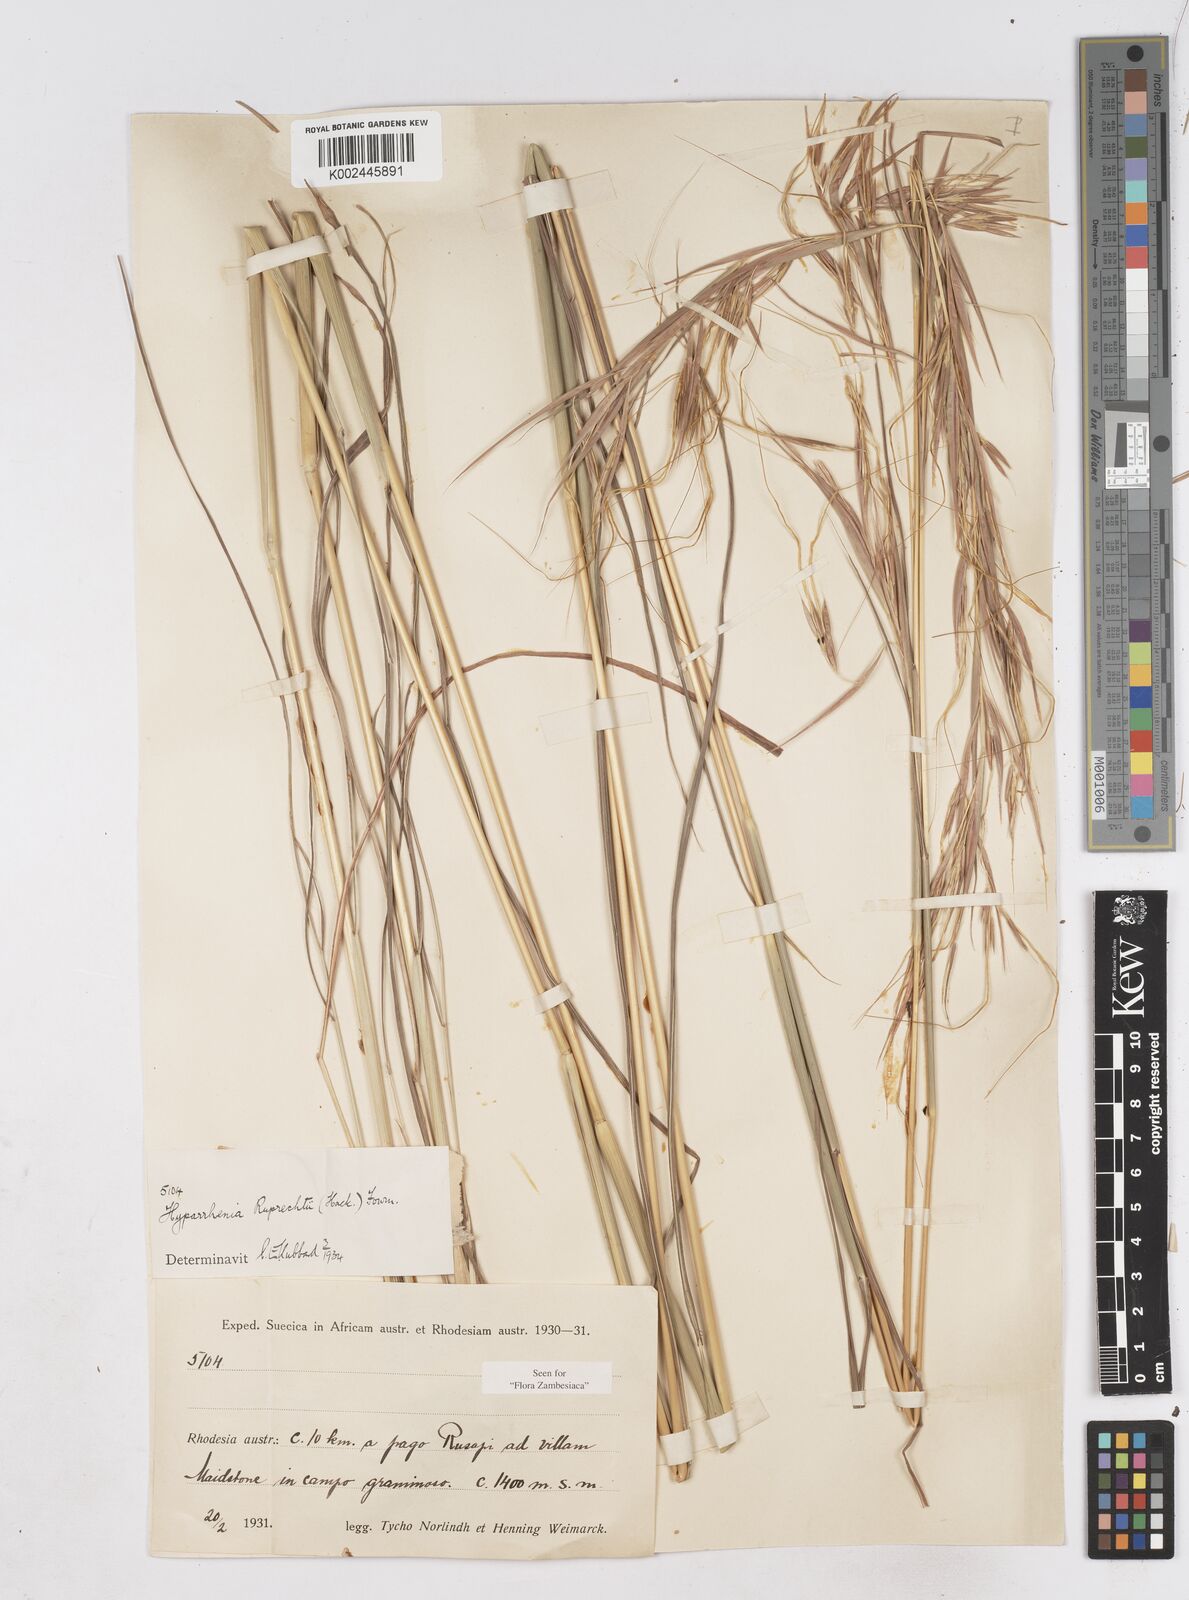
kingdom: Plantae
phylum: Tracheophyta
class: Liliopsida
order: Poales
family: Poaceae
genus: Hyperthelia
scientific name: Hyperthelia dissoluta
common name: Yellow thatching grass
